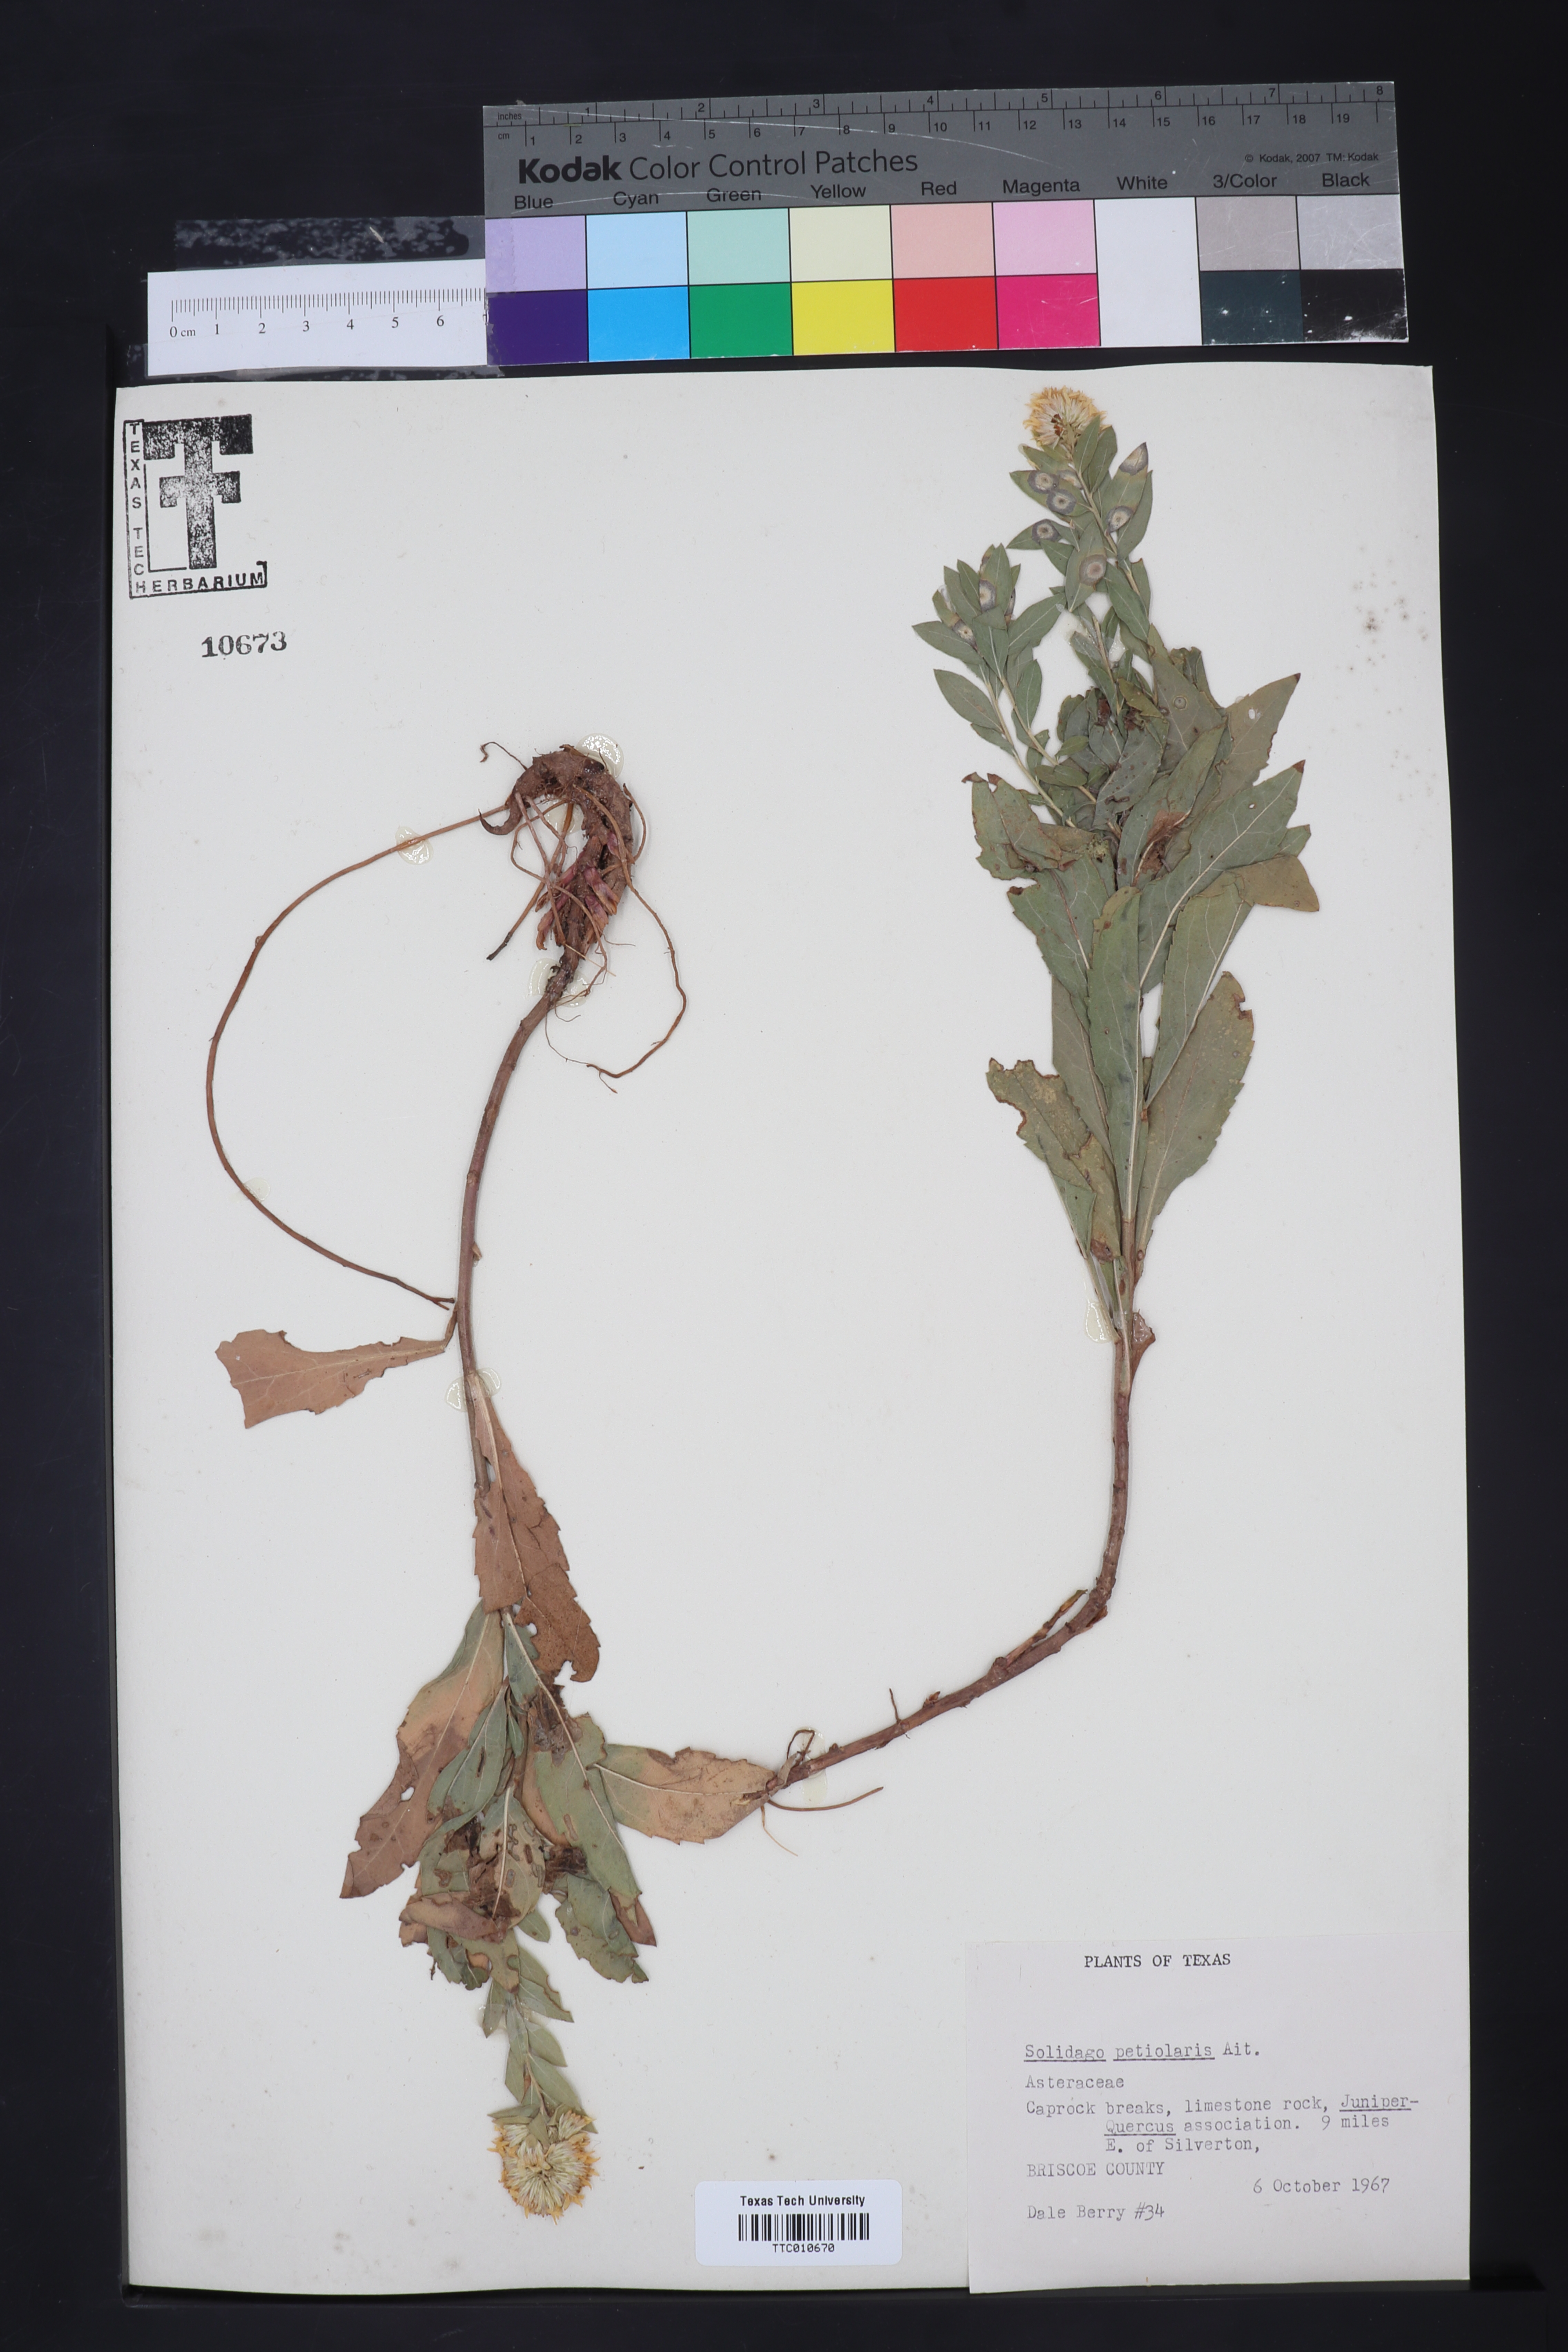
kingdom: Plantae
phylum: Tracheophyta
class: Magnoliopsida
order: Asterales
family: Asteraceae
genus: Solidago
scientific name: Solidago petiolaris
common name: Downy ragged goldenrod
